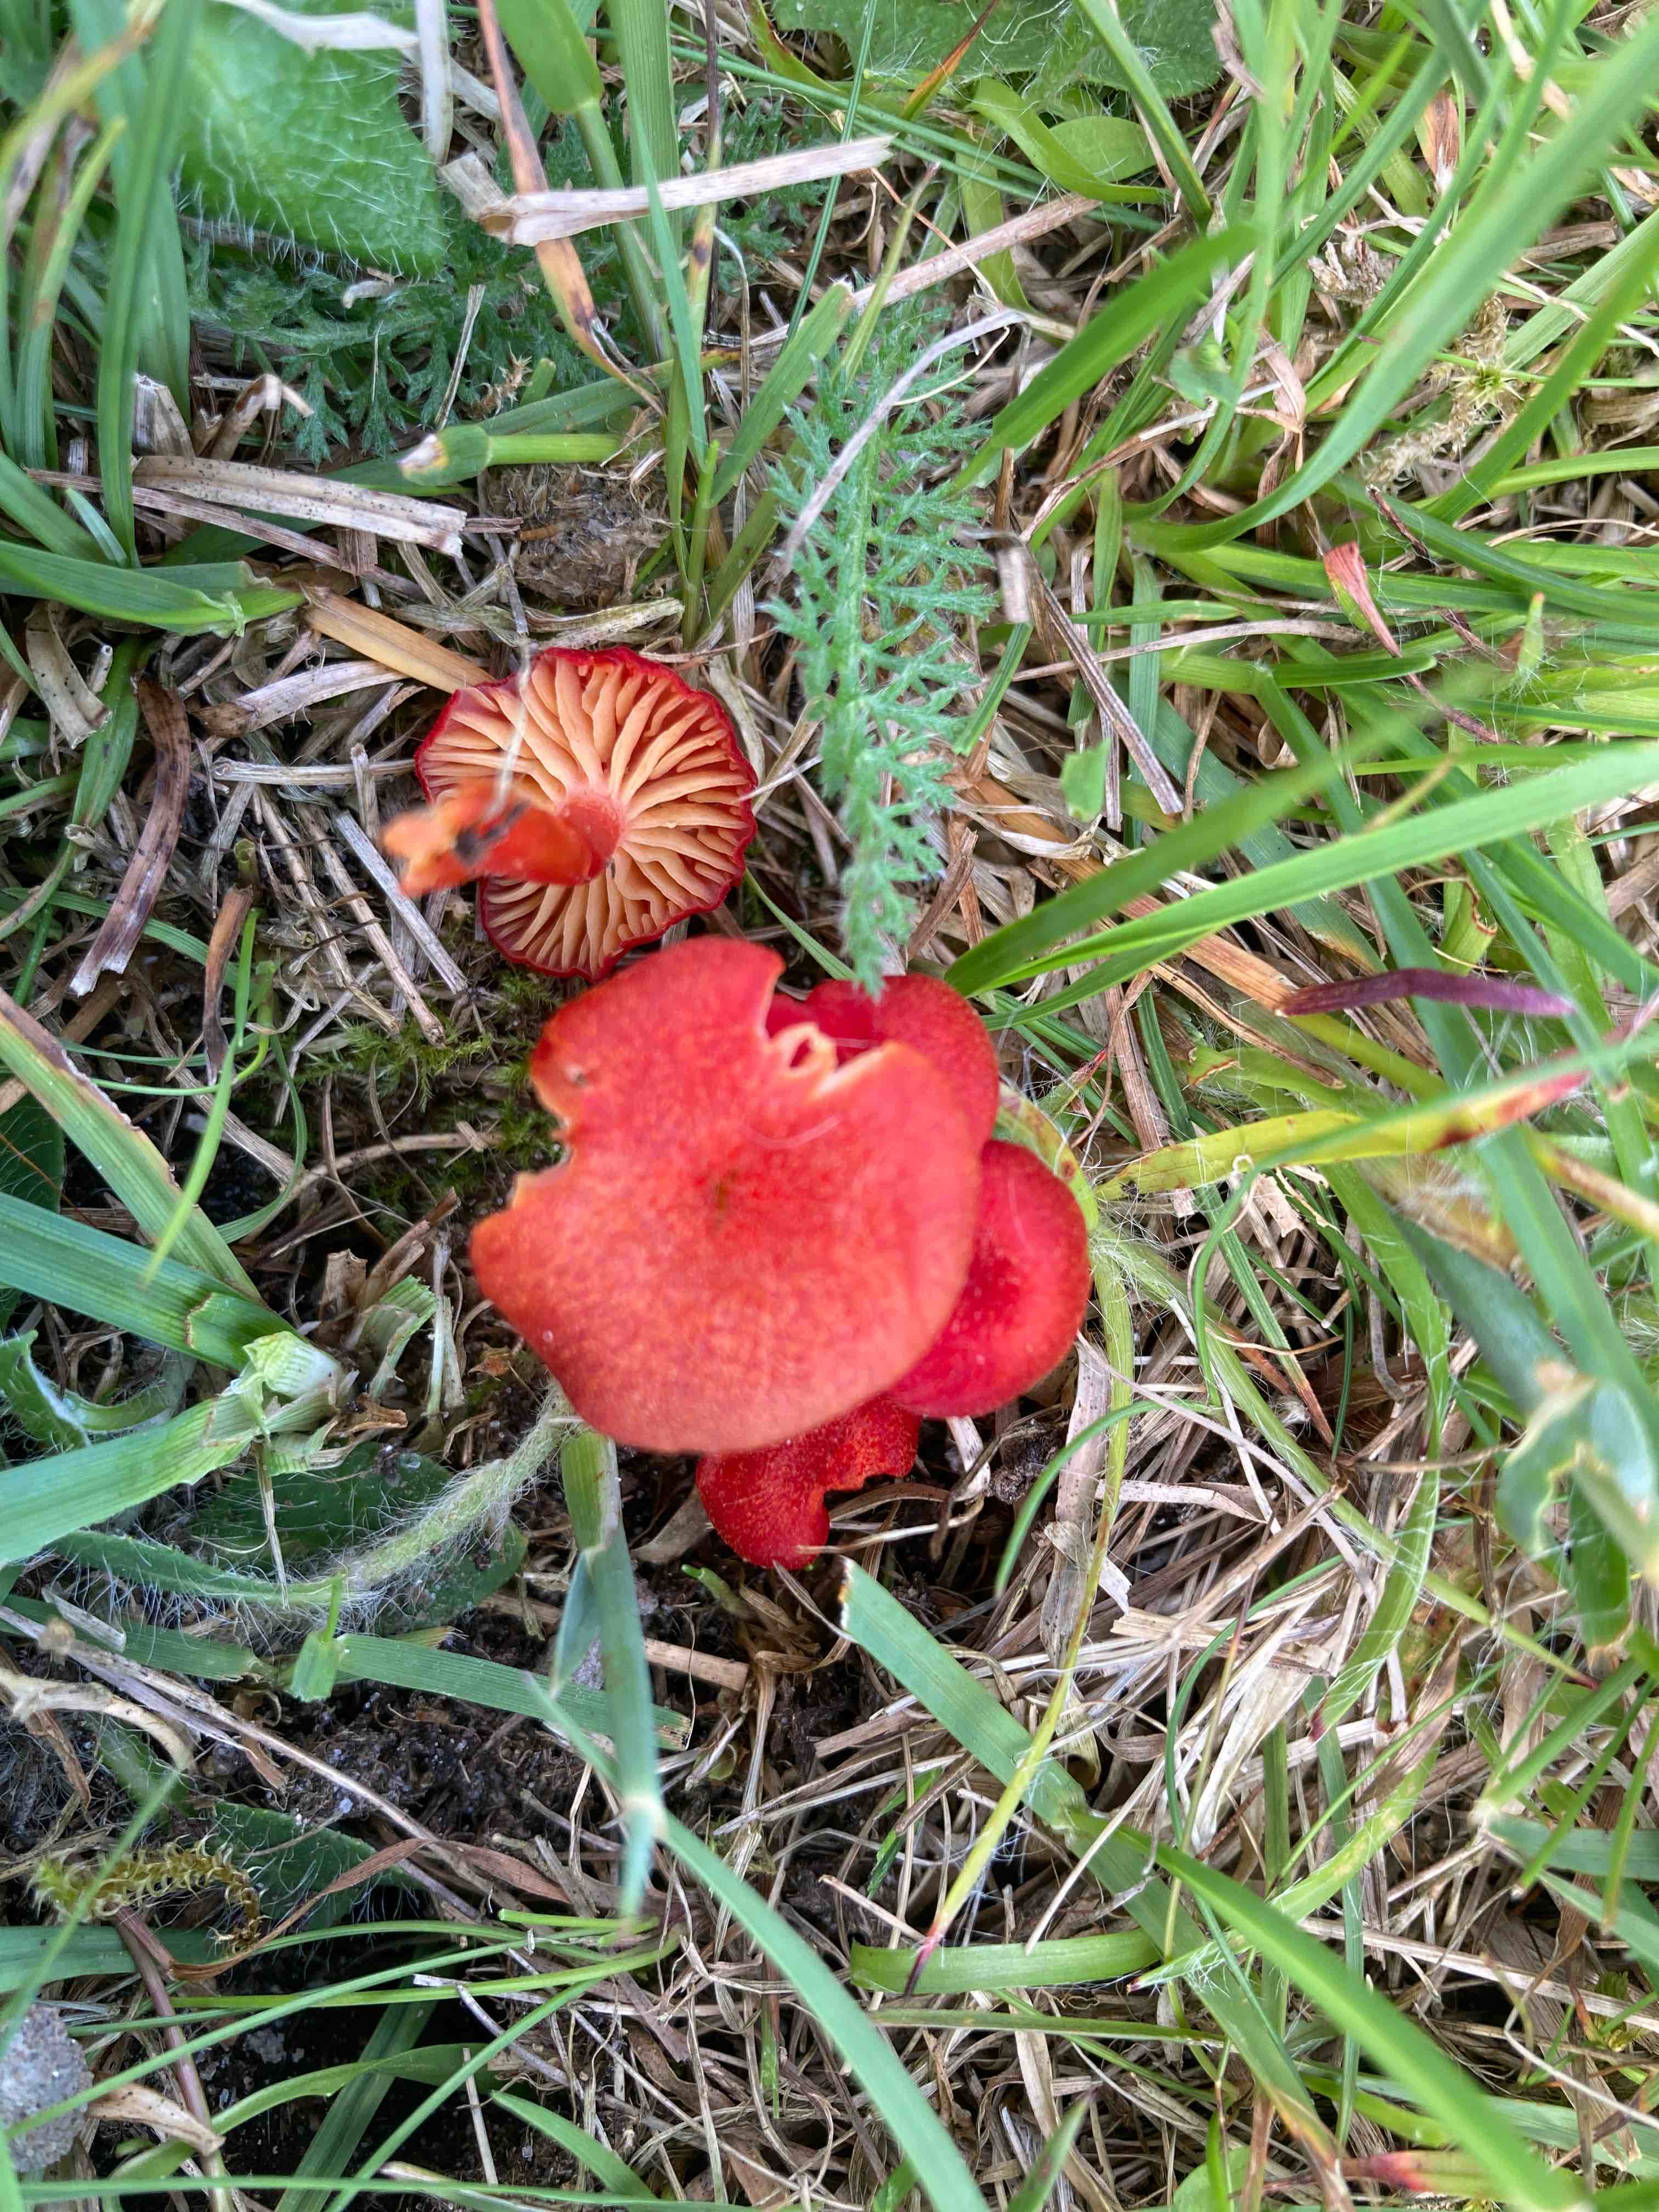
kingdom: Fungi
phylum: Basidiomycota
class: Agaricomycetes
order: Agaricales
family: Hygrophoraceae
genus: Hygrocybe
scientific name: Hygrocybe helobia
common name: hvidløgs-vokshat
